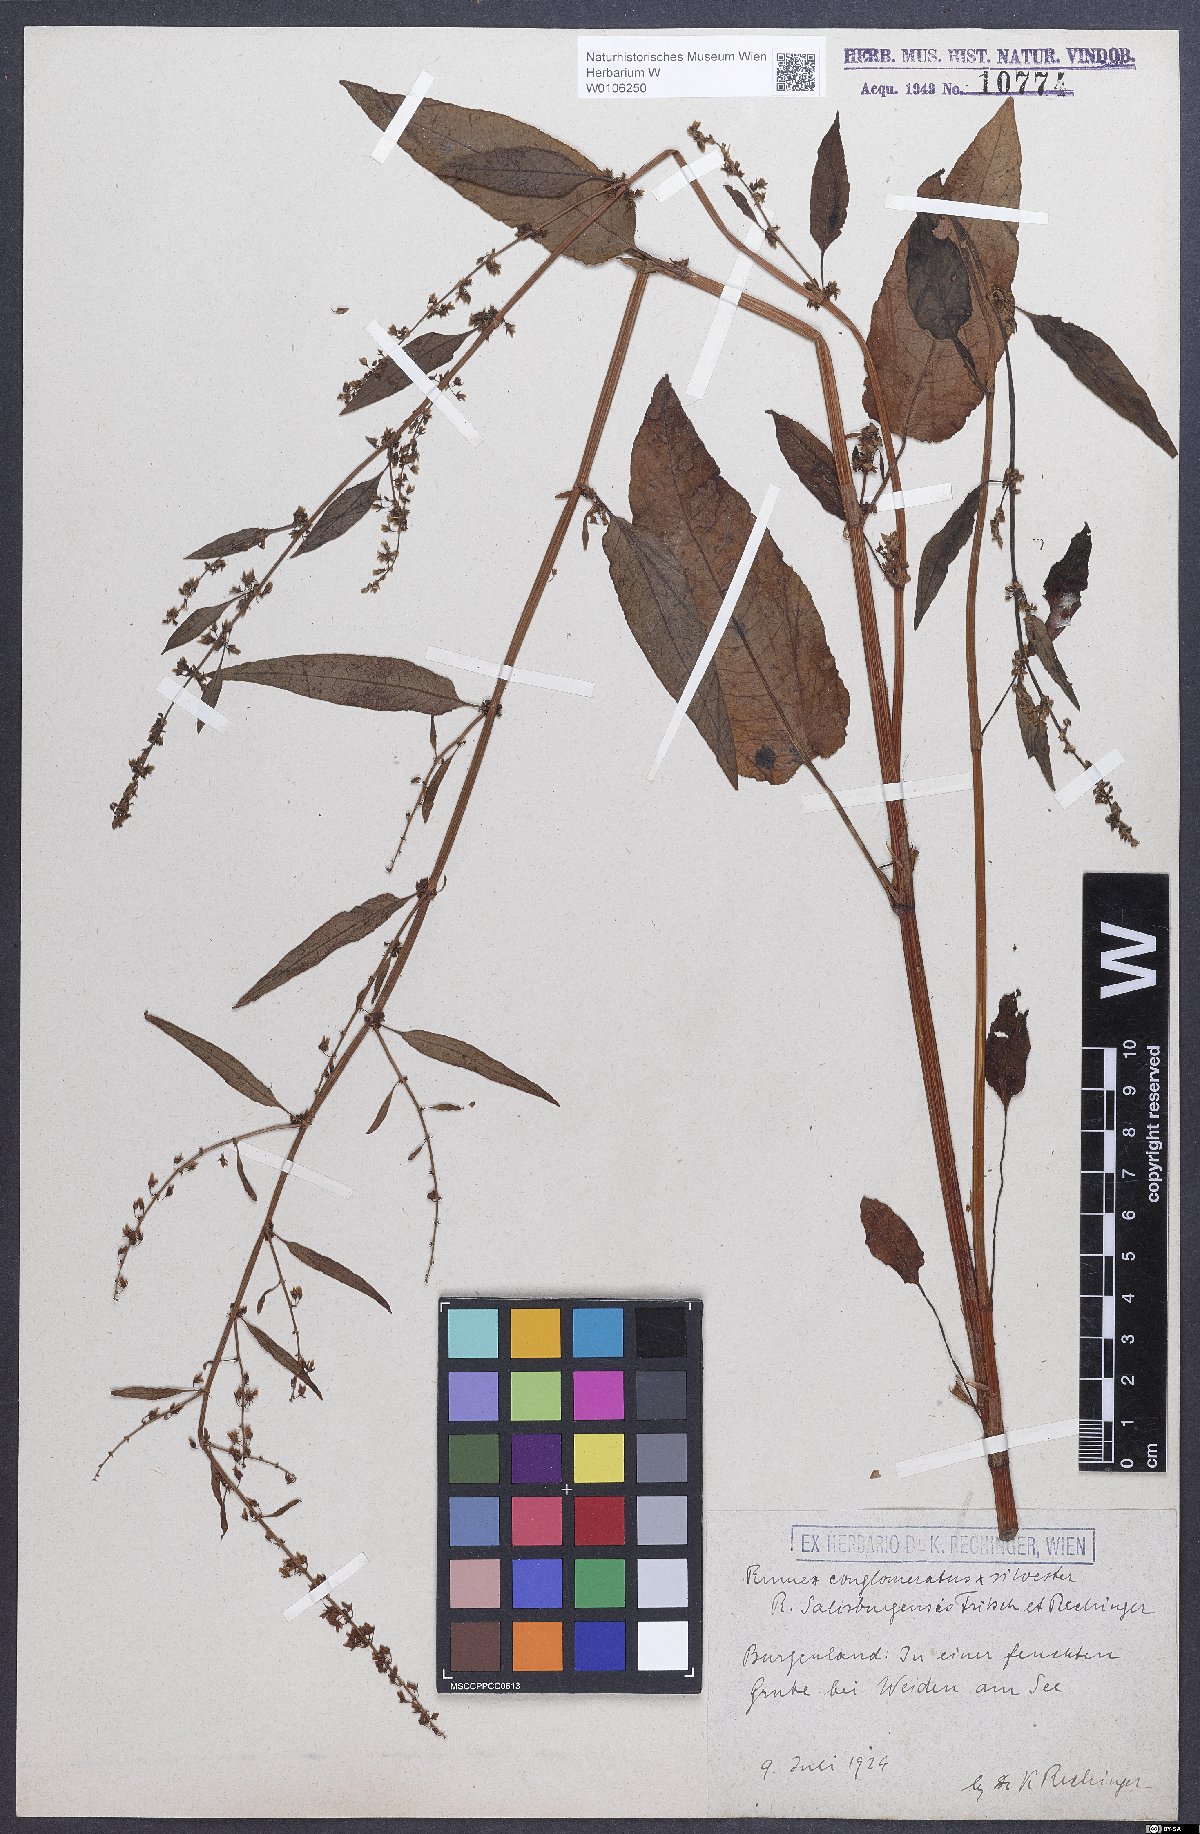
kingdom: Plantae
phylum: Tracheophyta
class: Magnoliopsida
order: Caryophyllales
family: Polygonaceae
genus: Rumex
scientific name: Rumex
